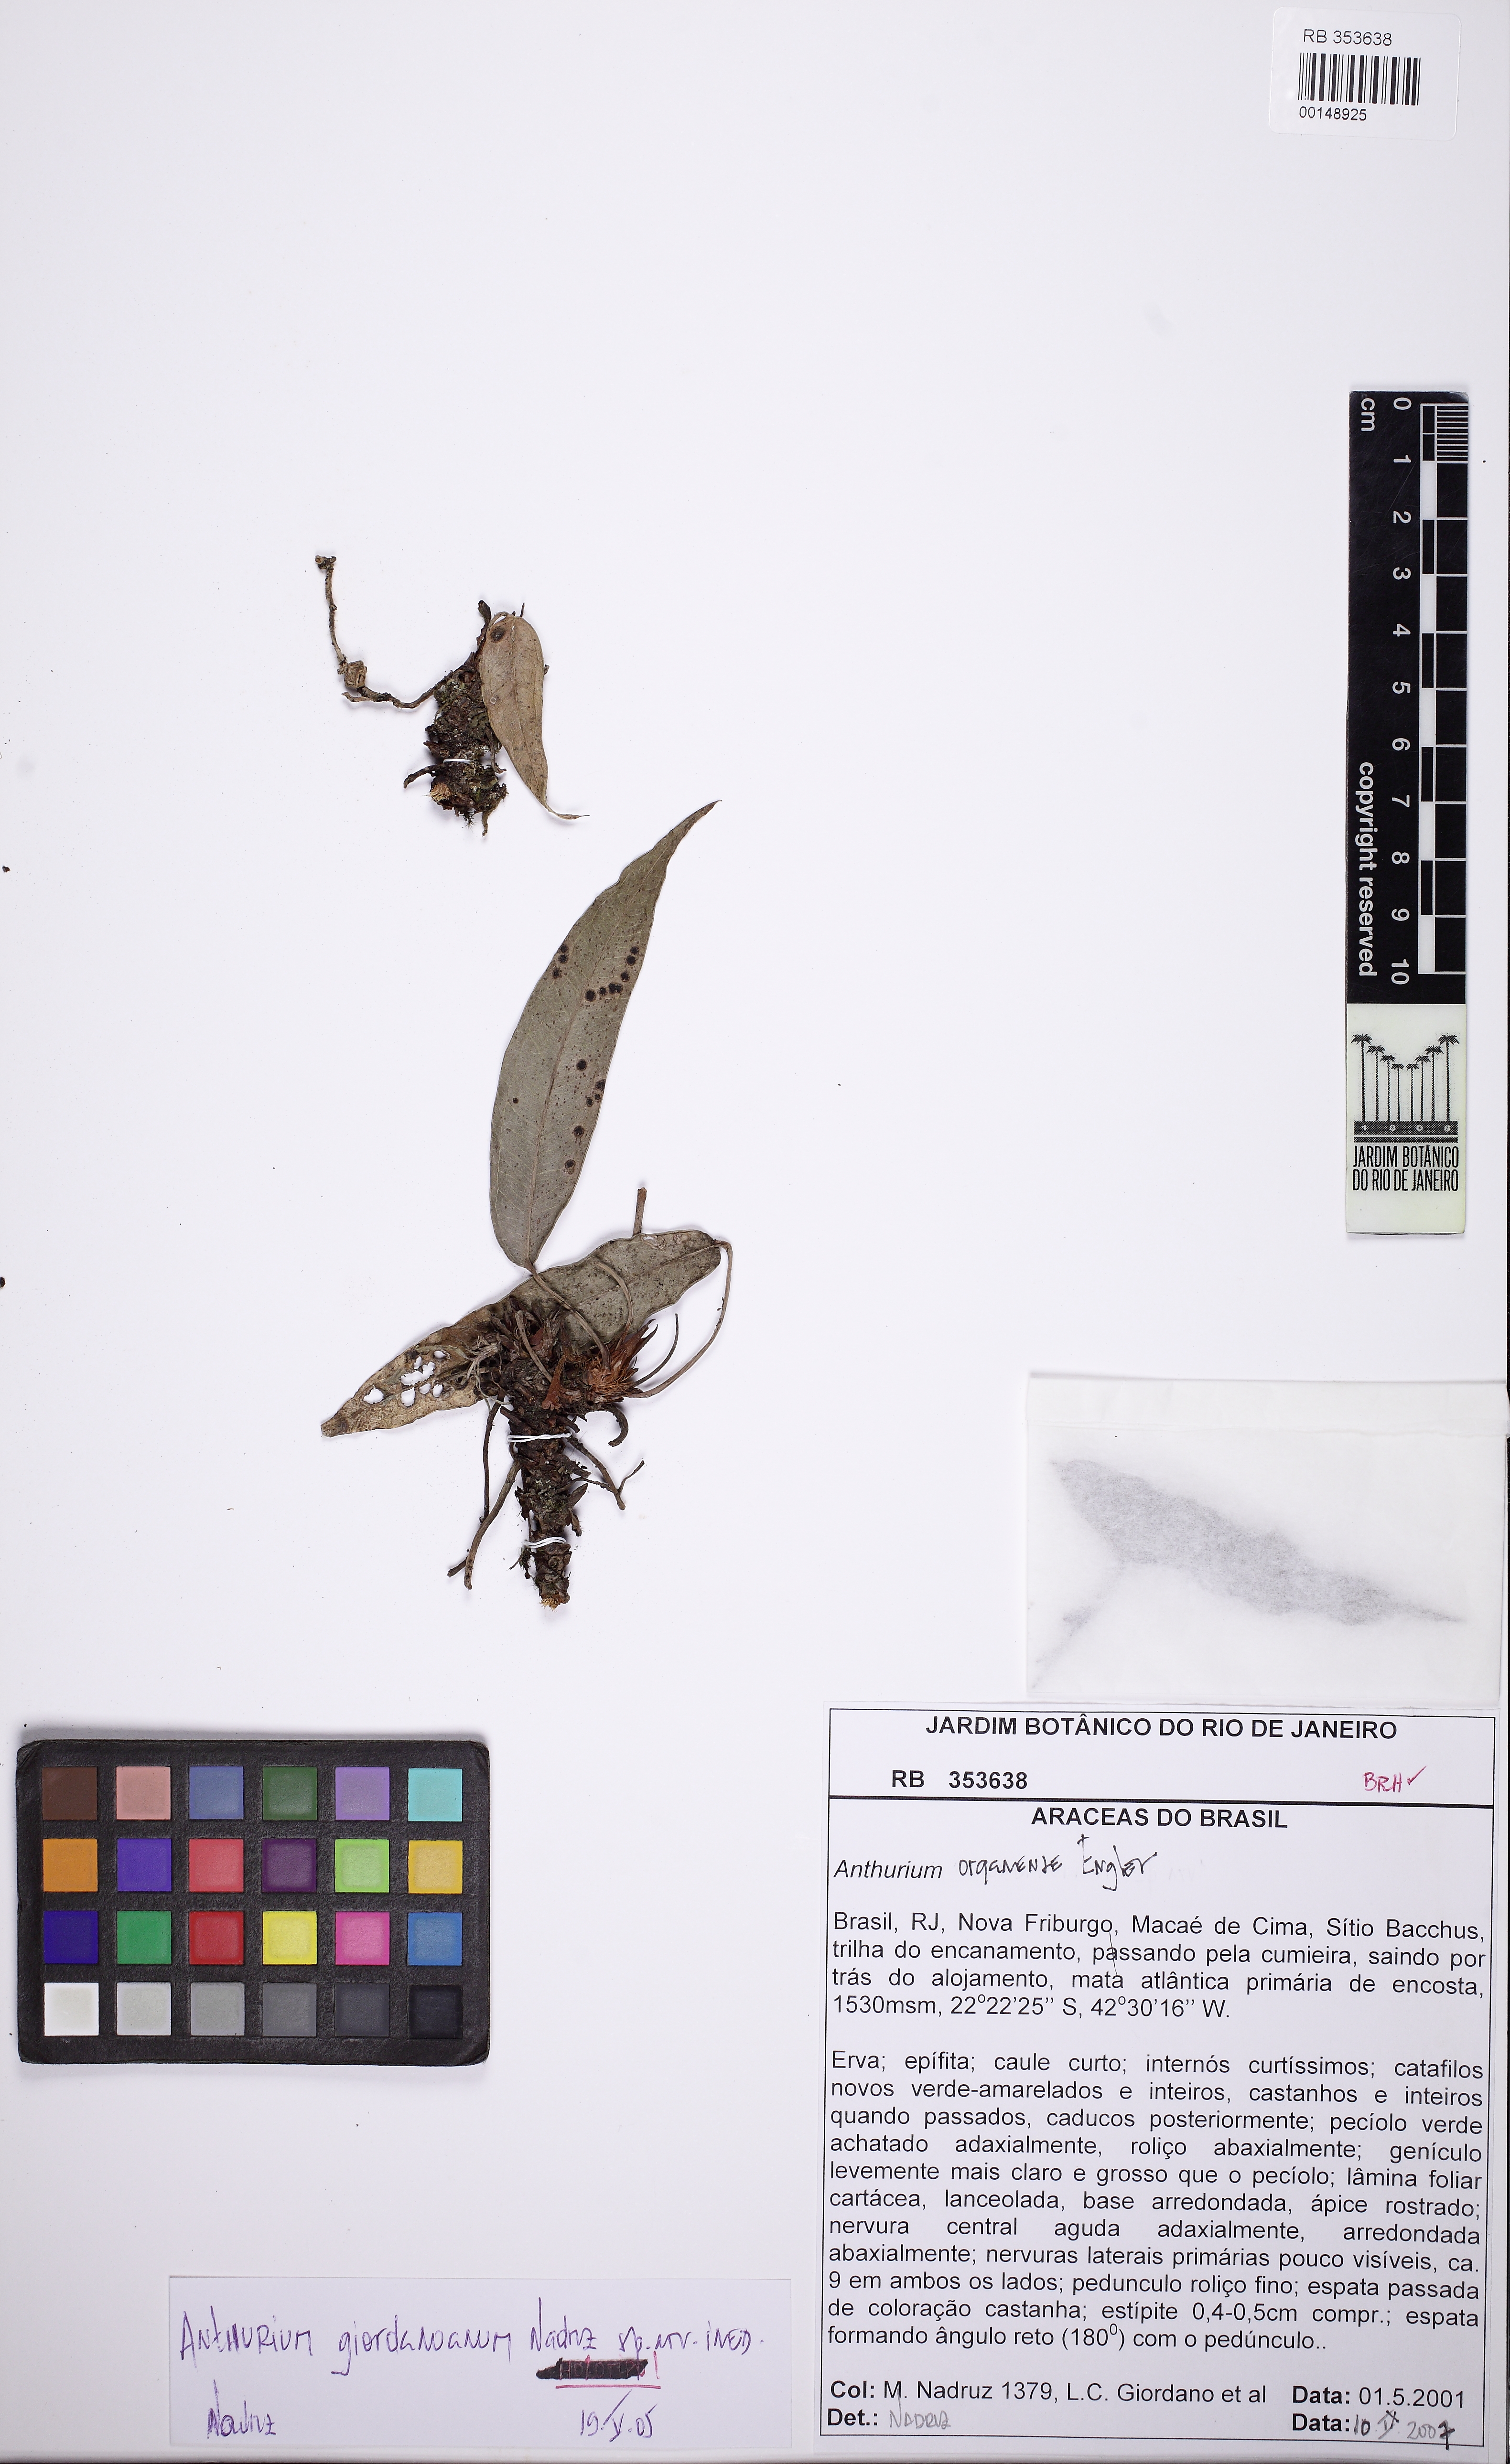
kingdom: Plantae
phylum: Tracheophyta
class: Liliopsida
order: Alismatales
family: Araceae
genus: Anthurium
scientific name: Anthurium
